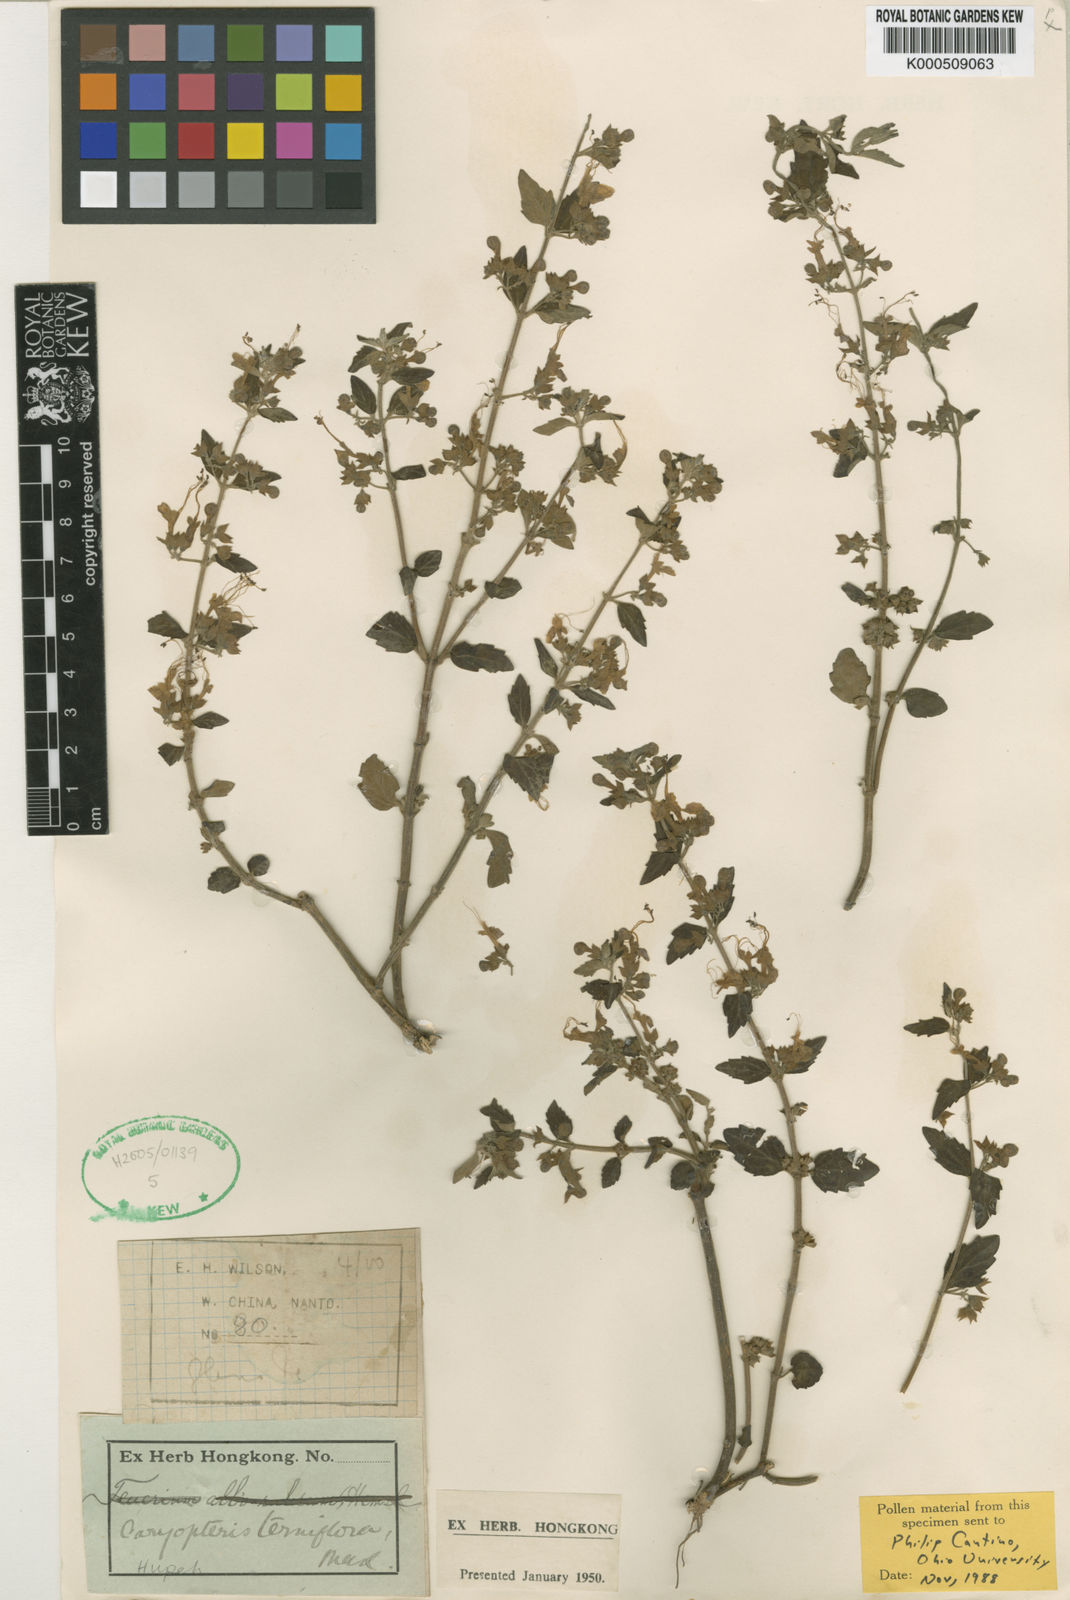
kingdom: Plantae
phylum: Tracheophyta
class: Magnoliopsida
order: Lamiales
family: Lamiaceae
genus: Schnabelia
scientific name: Schnabelia terniflora
